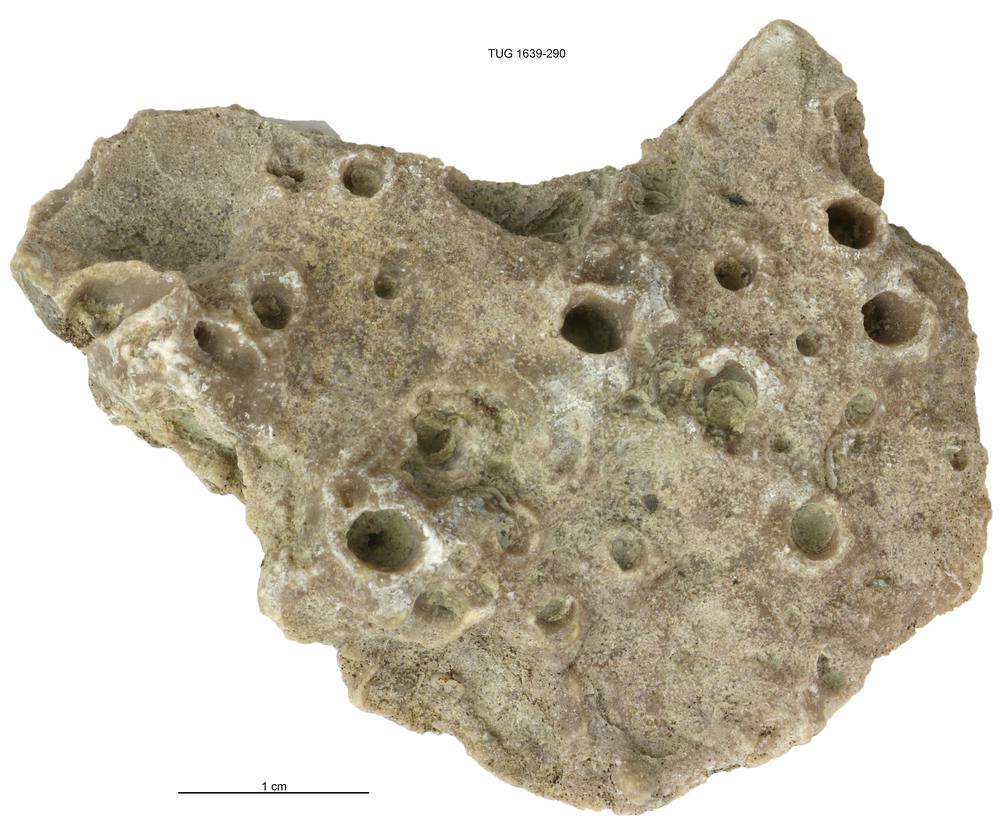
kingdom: Animalia
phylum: Bryozoa
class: Stenolaemata
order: Cystoporida
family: Fistuliporidae
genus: Fistulipora
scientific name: Fistulipora
